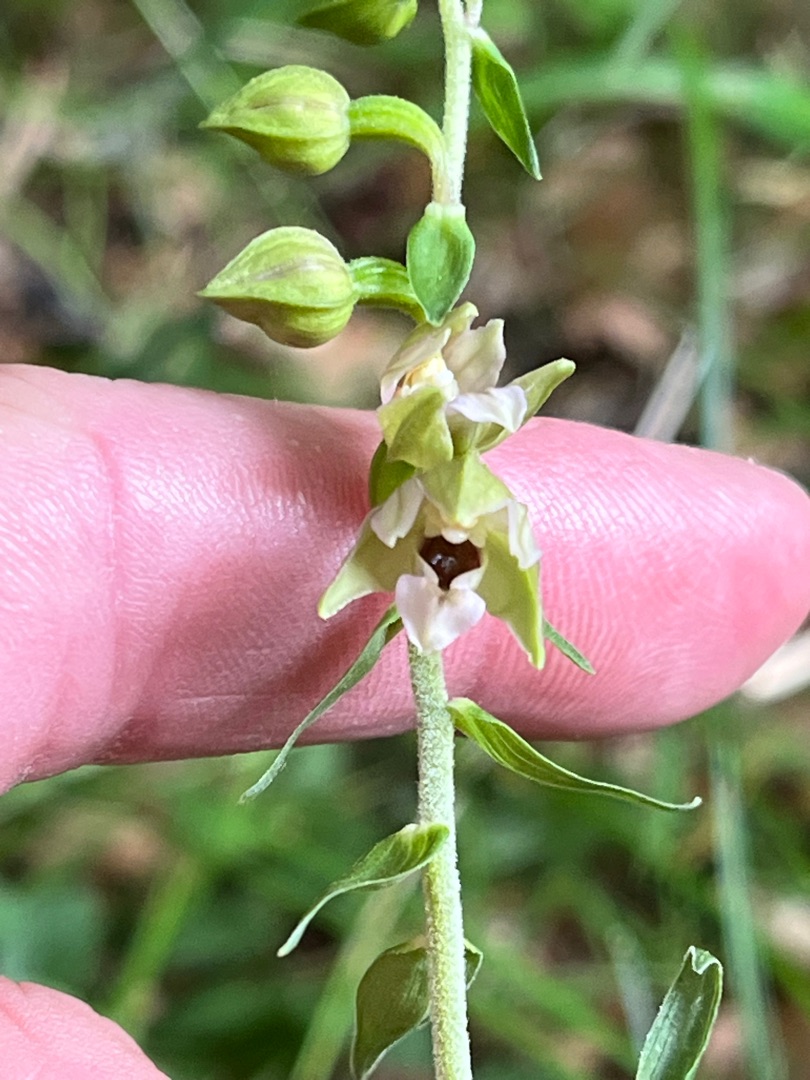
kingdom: Plantae
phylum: Tracheophyta
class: Liliopsida
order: Asparagales
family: Orchidaceae
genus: Epipactis
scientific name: Epipactis helleborine
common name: Skov-hullæbe
